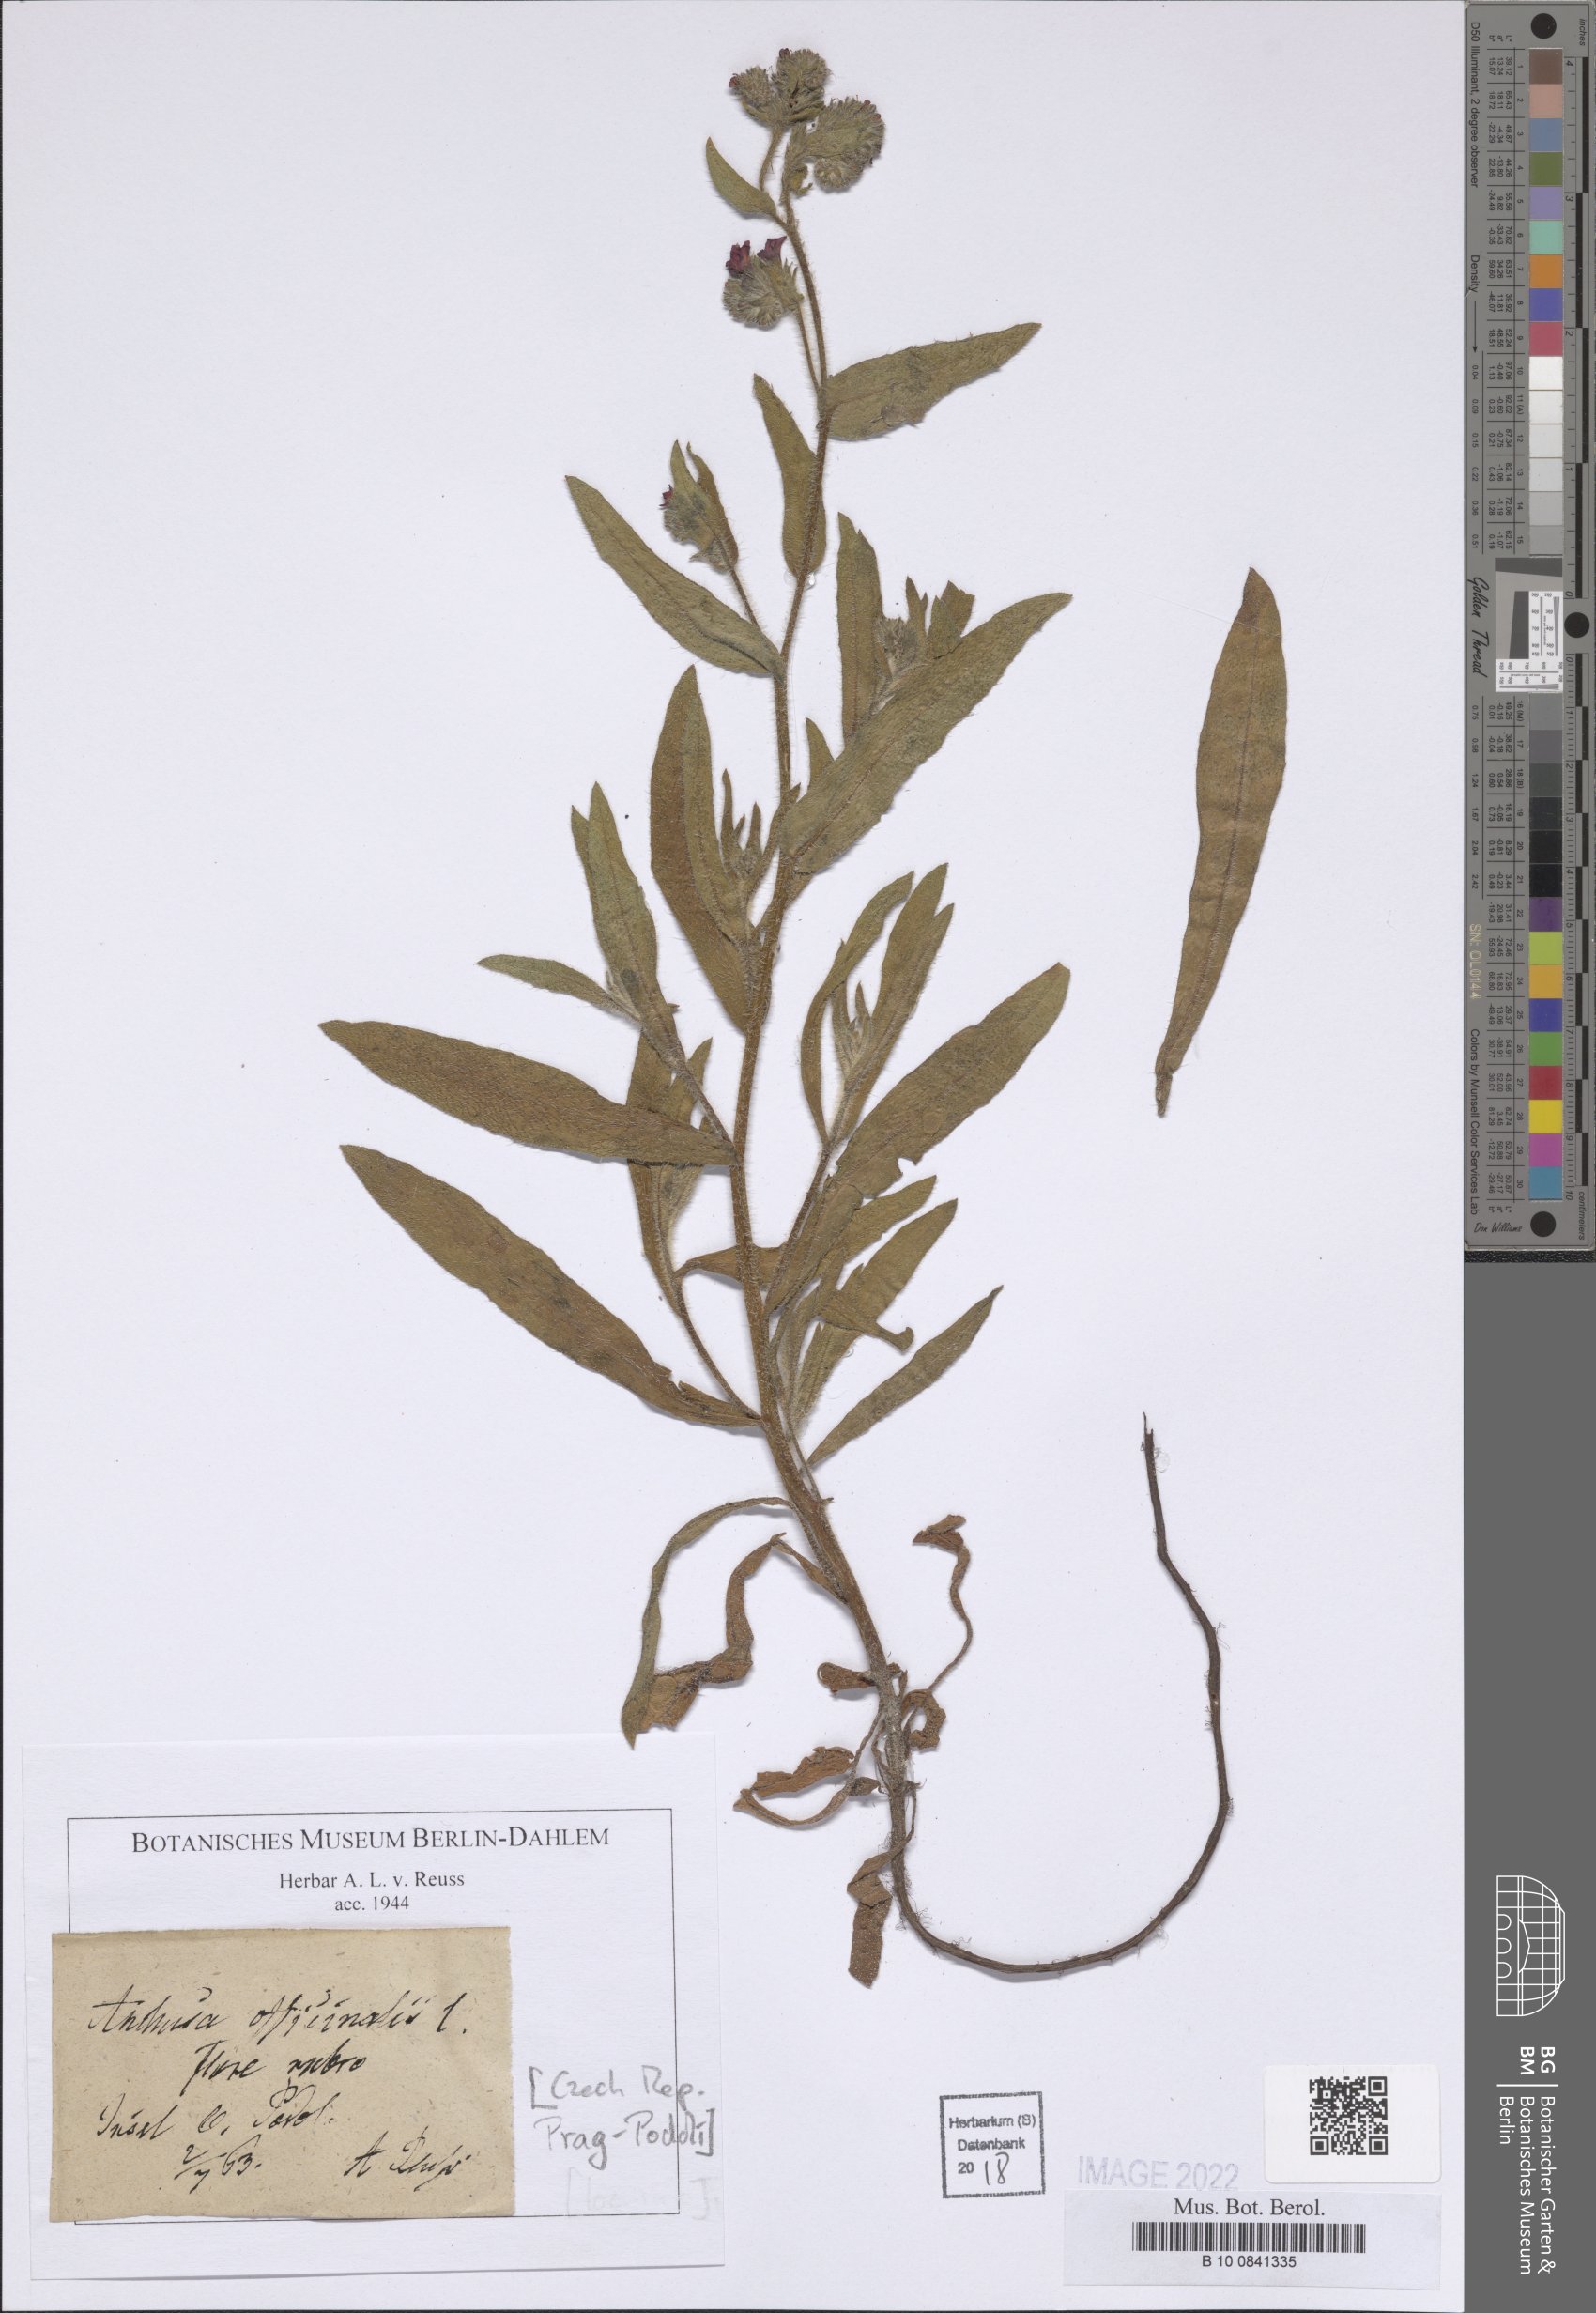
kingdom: Plantae
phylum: Tracheophyta
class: Magnoliopsida
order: Boraginales
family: Boraginaceae
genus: Anchusa
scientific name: Anchusa officinalis
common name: Alkanet
